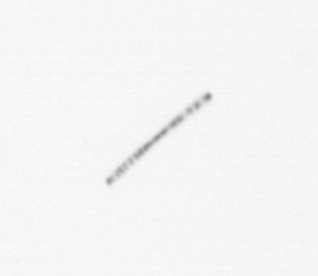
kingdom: Chromista
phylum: Ochrophyta
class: Bacillariophyceae
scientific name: Bacillariophyceae
